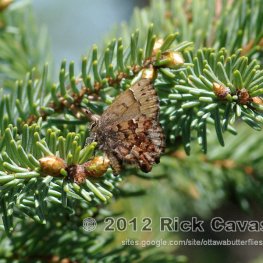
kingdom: Animalia
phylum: Arthropoda
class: Insecta
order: Lepidoptera
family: Lycaenidae
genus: Incisalia
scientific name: Incisalia lanoraieensis
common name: Bog Elfin
